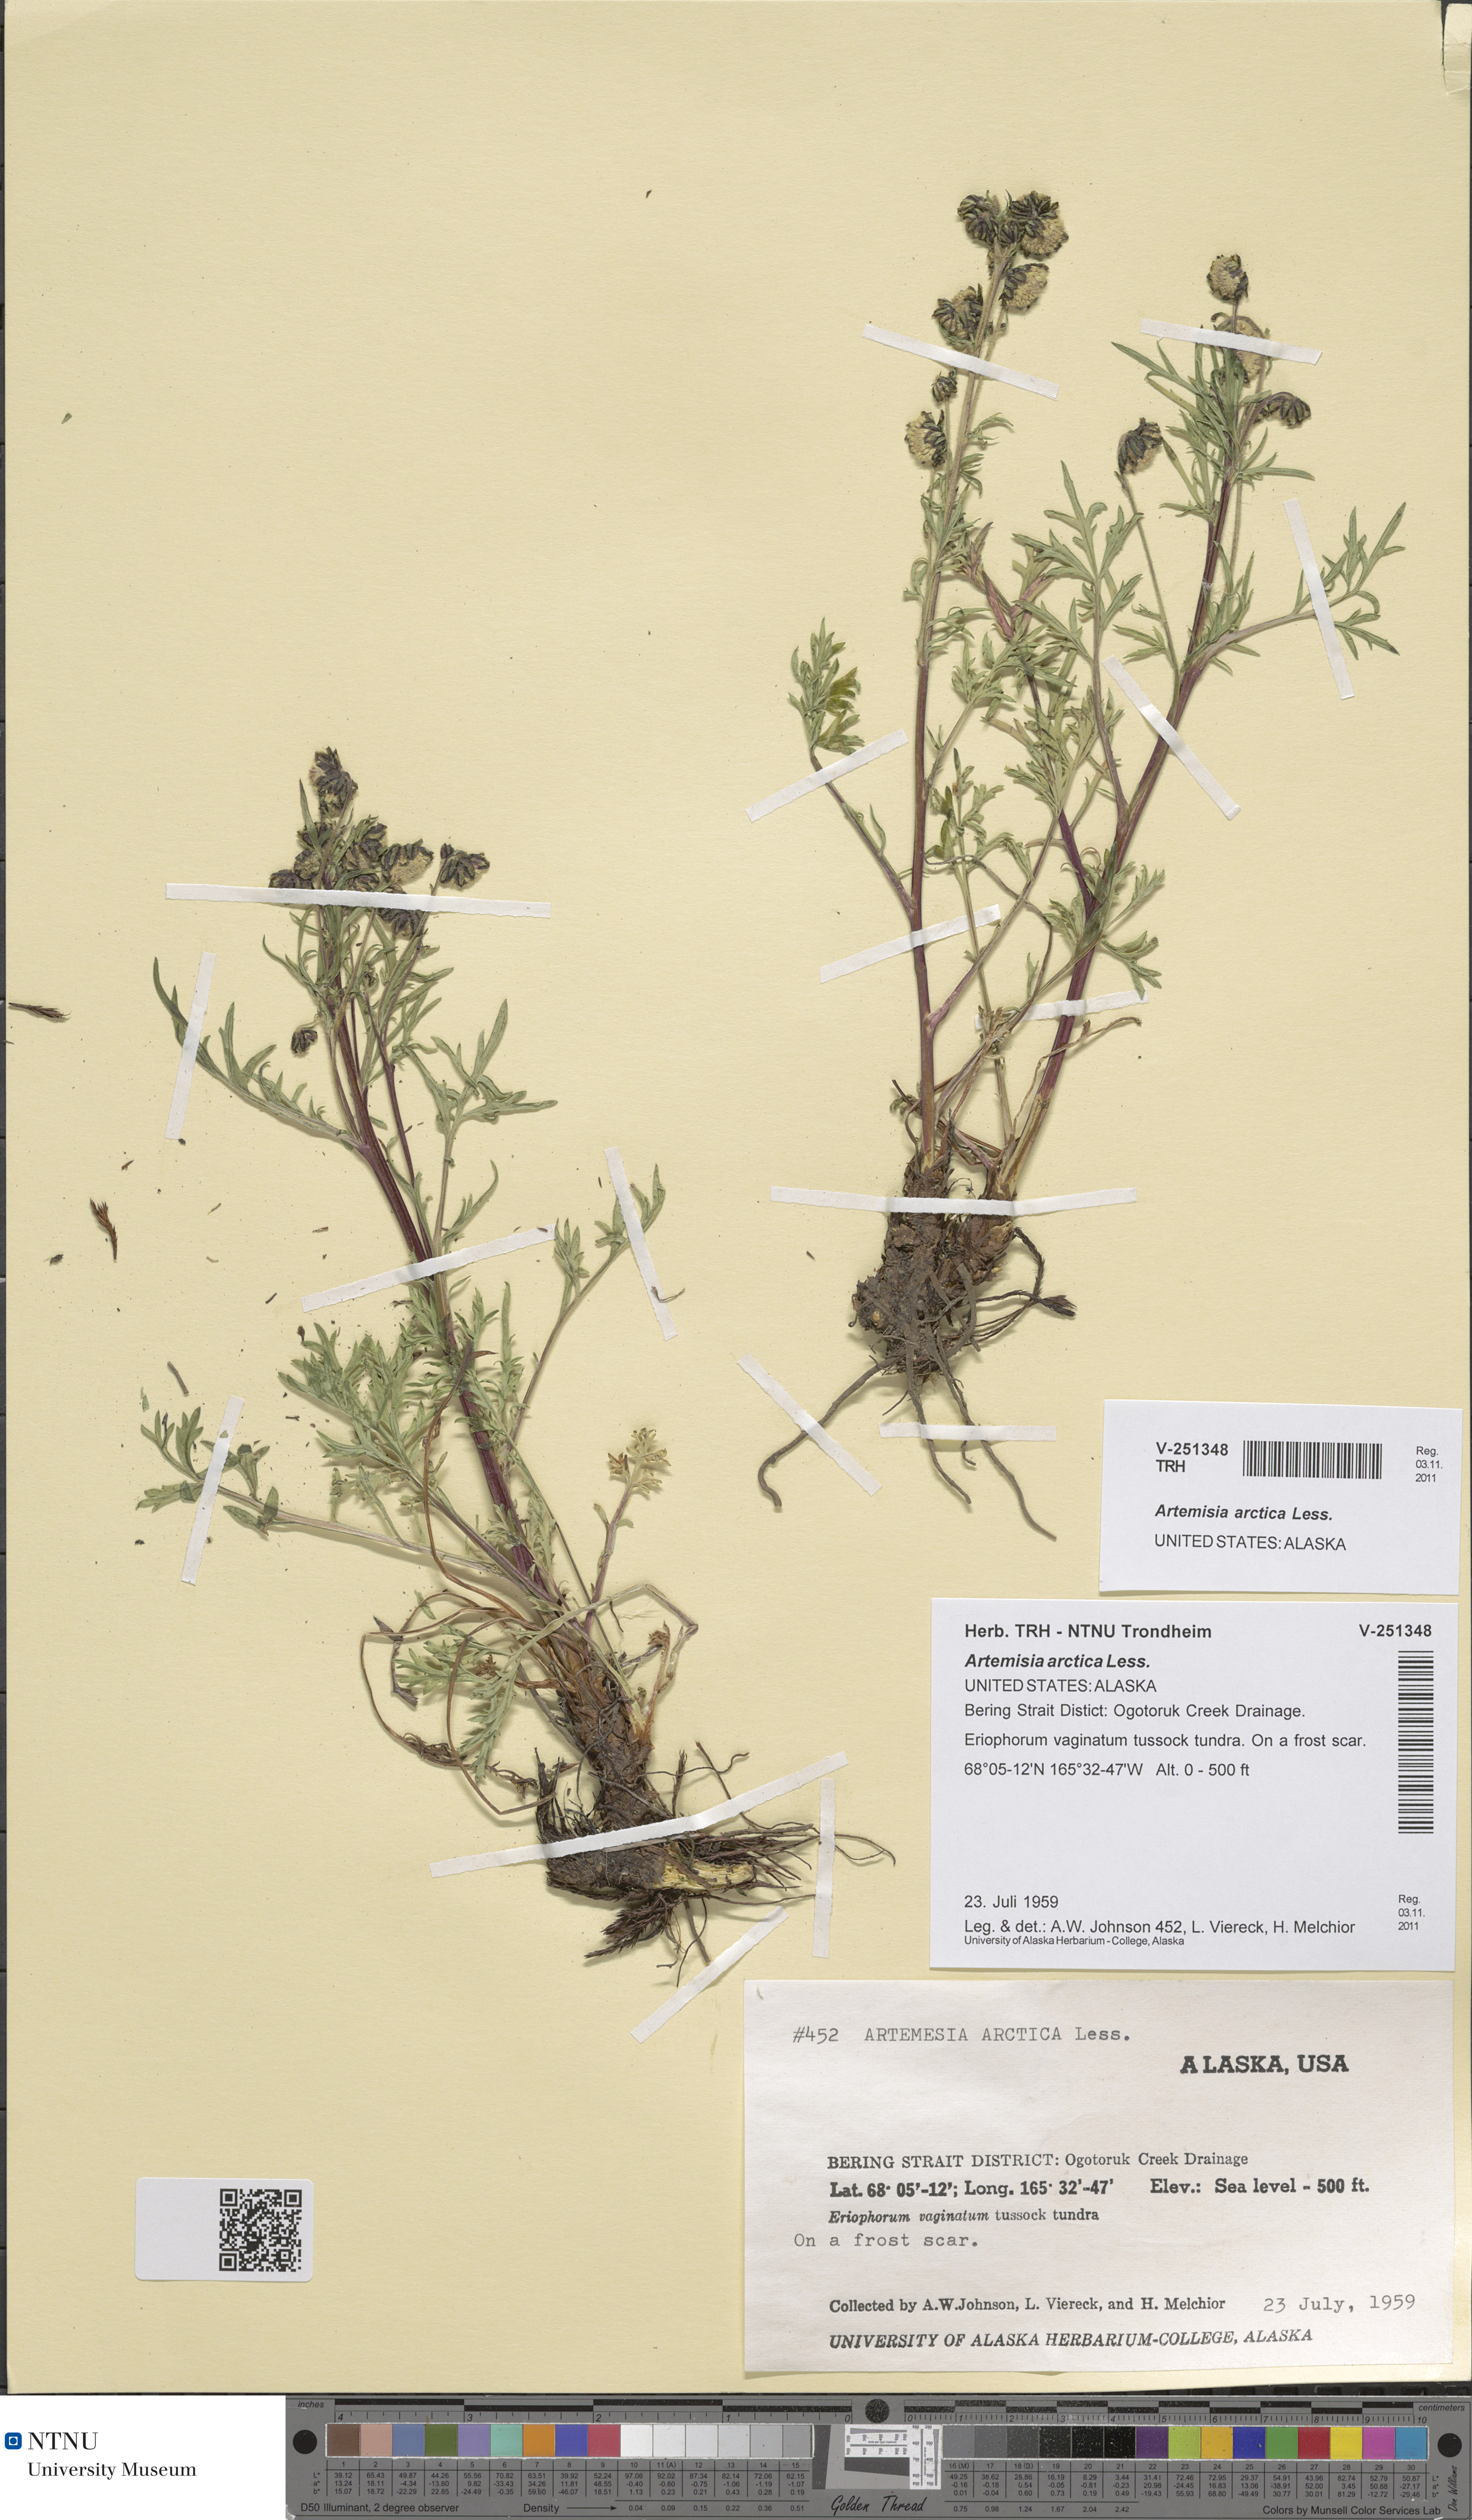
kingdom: Plantae
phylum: Tracheophyta
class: Magnoliopsida
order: Asterales
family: Asteraceae
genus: Artemisia
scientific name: Artemisia norvegica
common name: Norwegian mugwort
